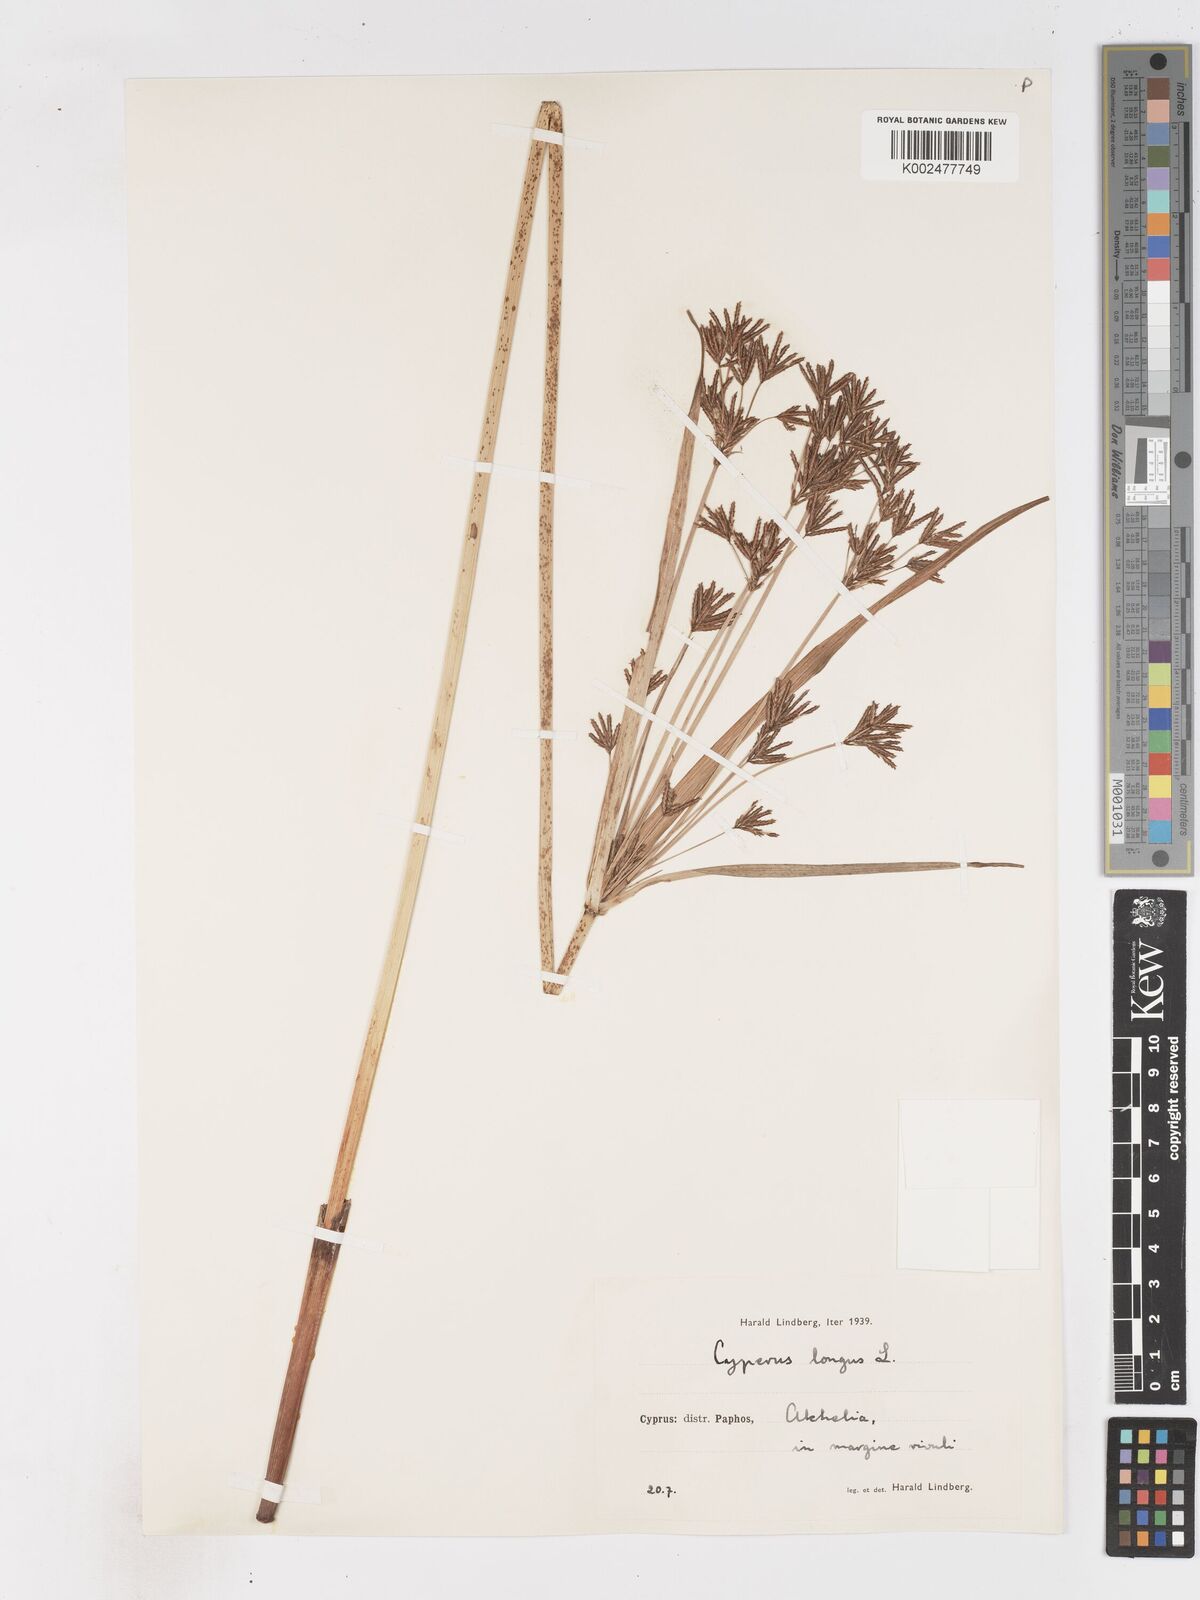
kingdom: Plantae
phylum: Tracheophyta
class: Liliopsida
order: Poales
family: Cyperaceae
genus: Cyperus
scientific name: Cyperus longus
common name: Galingale
